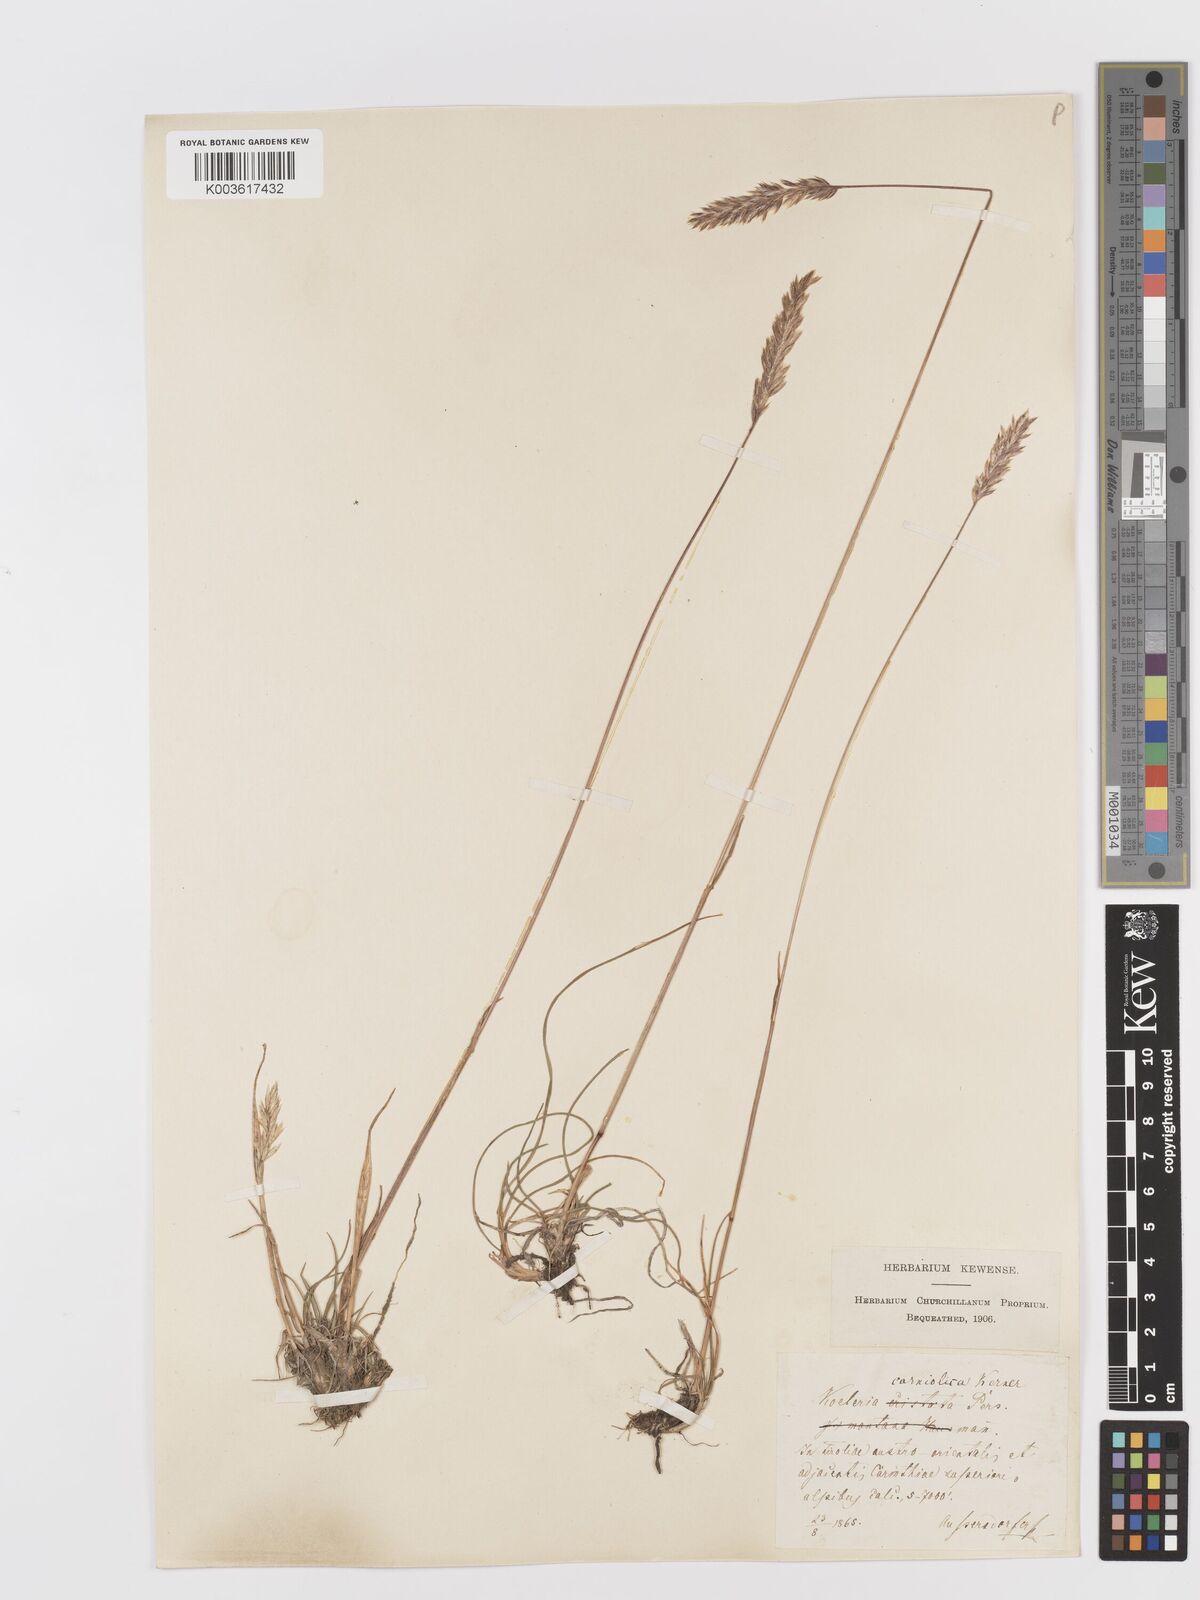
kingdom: Plantae
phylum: Tracheophyta
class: Liliopsida
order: Poales
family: Poaceae
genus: Koeleria
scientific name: Koeleria eriostachya
